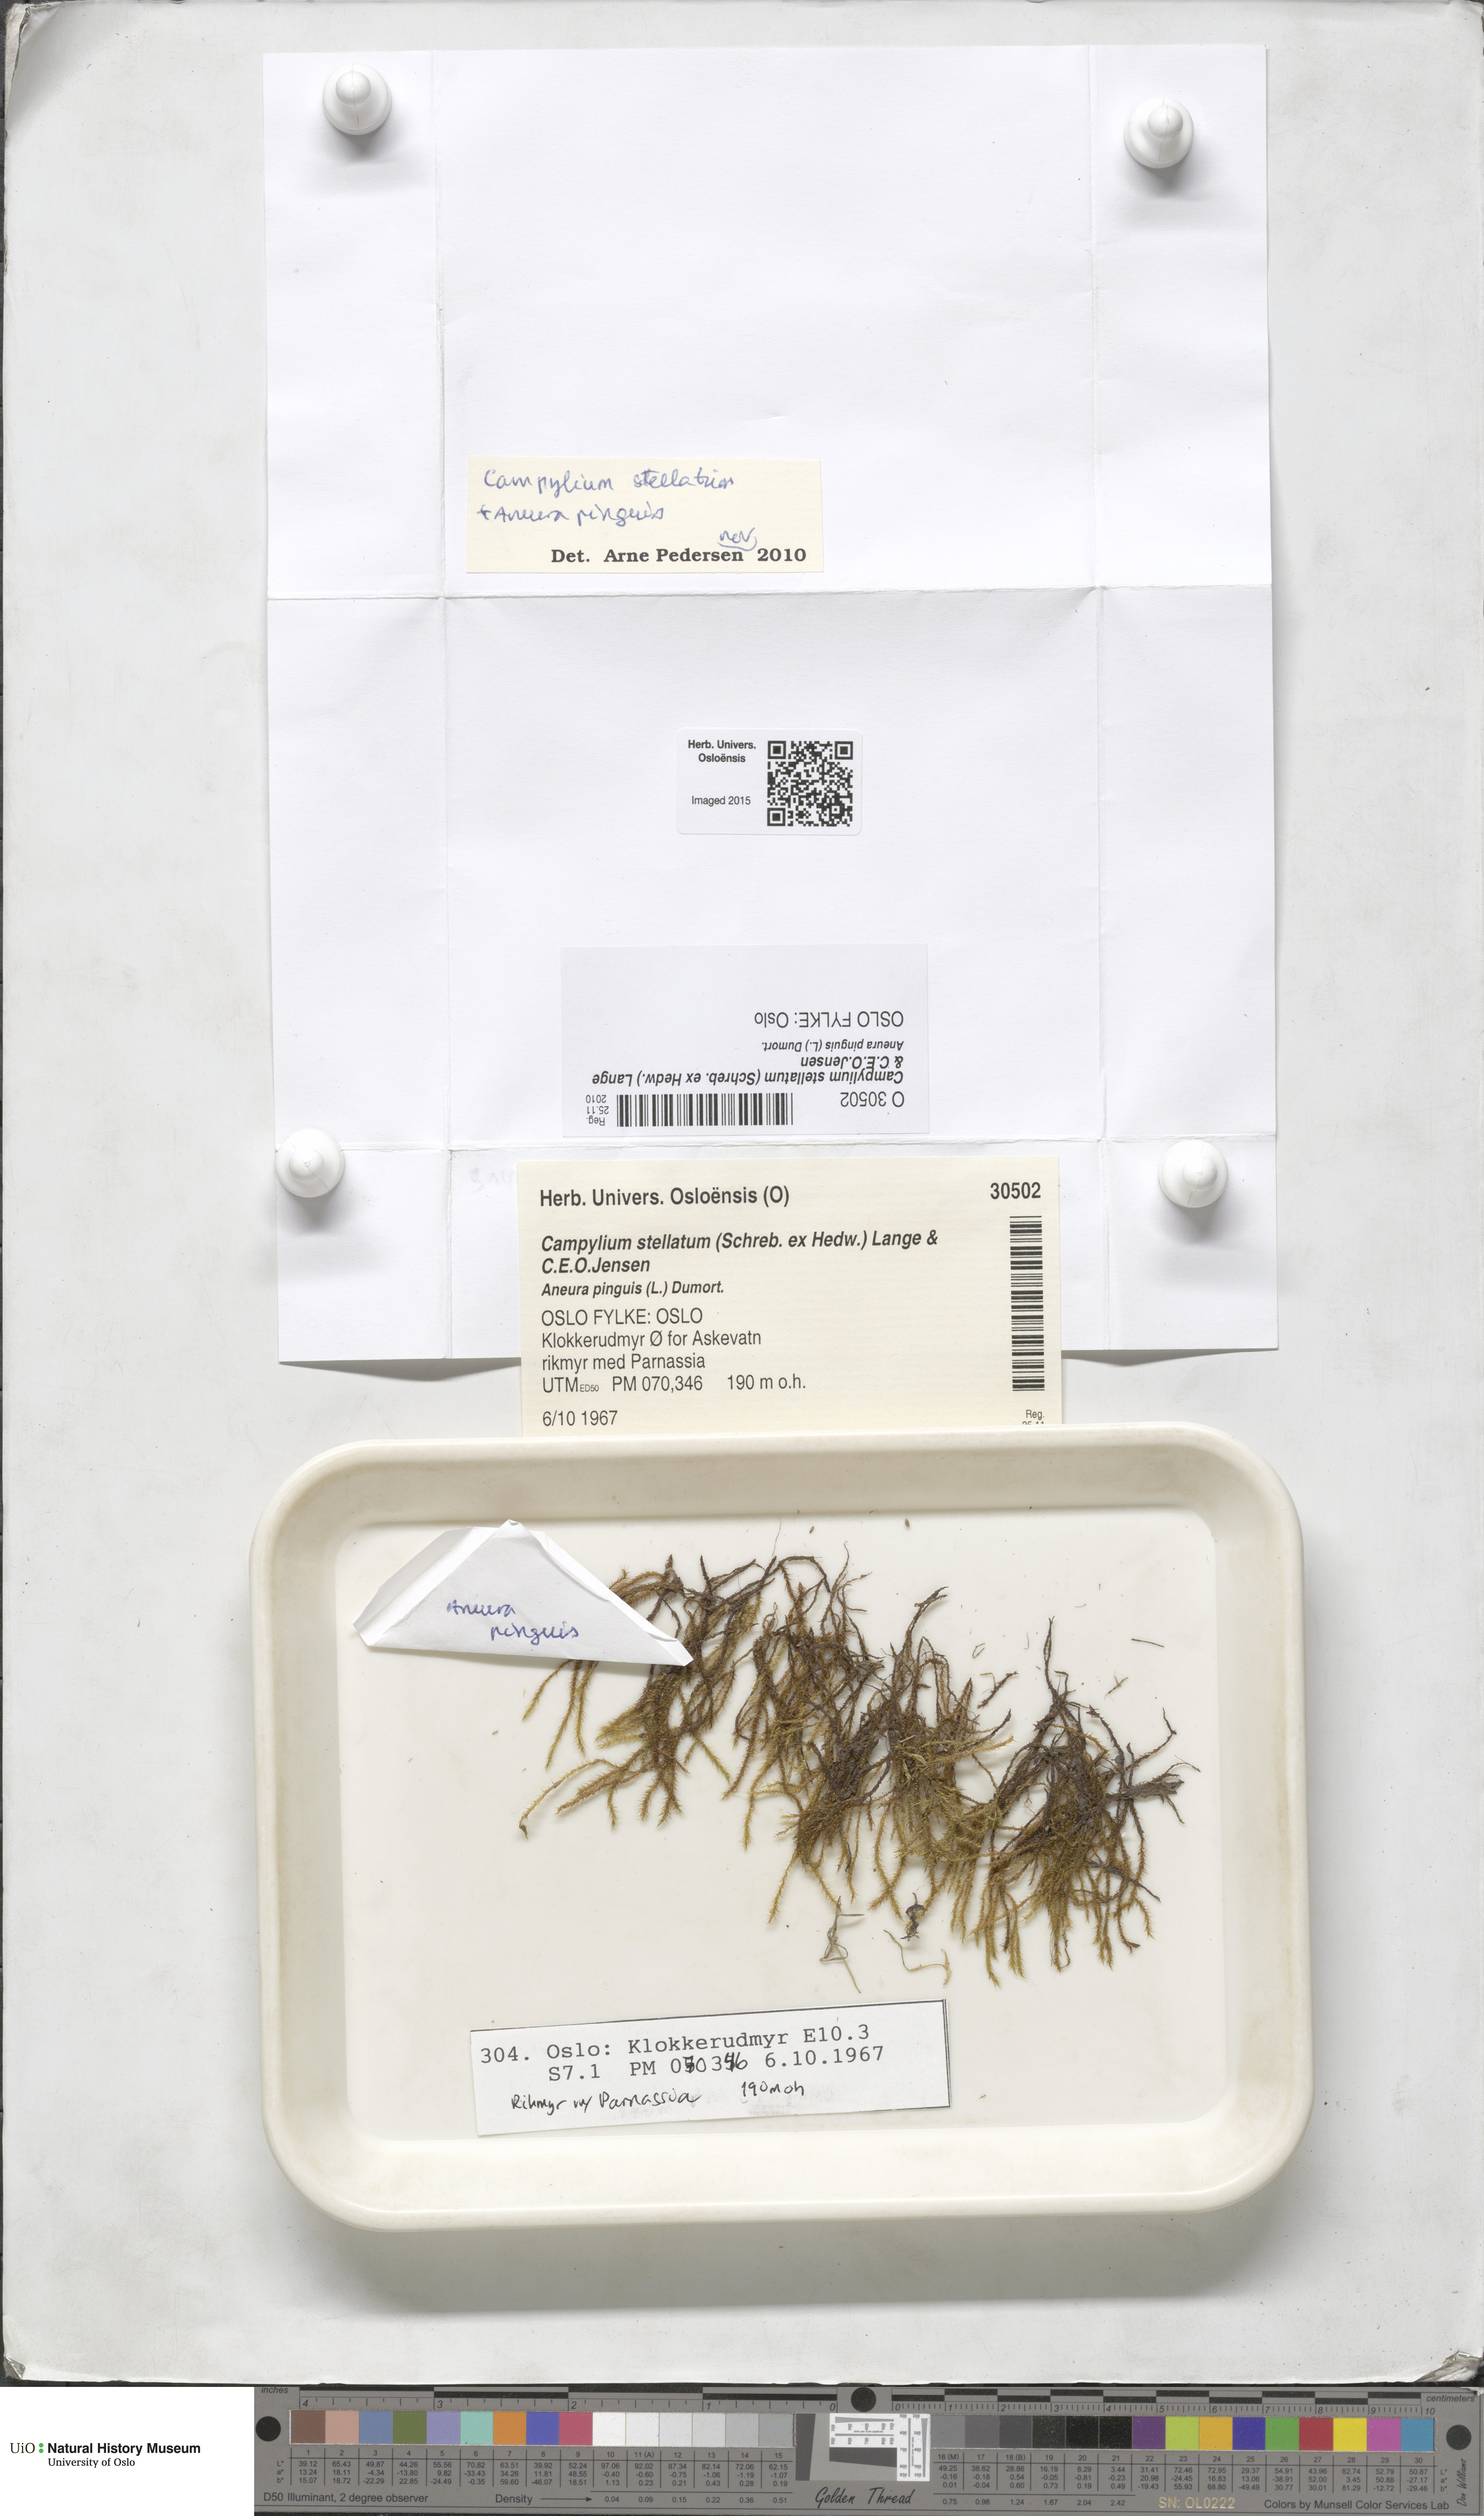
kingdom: Plantae
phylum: Bryophyta
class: Bryopsida
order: Hypnales
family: Amblystegiaceae
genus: Campylium
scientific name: Campylium stellatum
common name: Yellow starry fen moss
